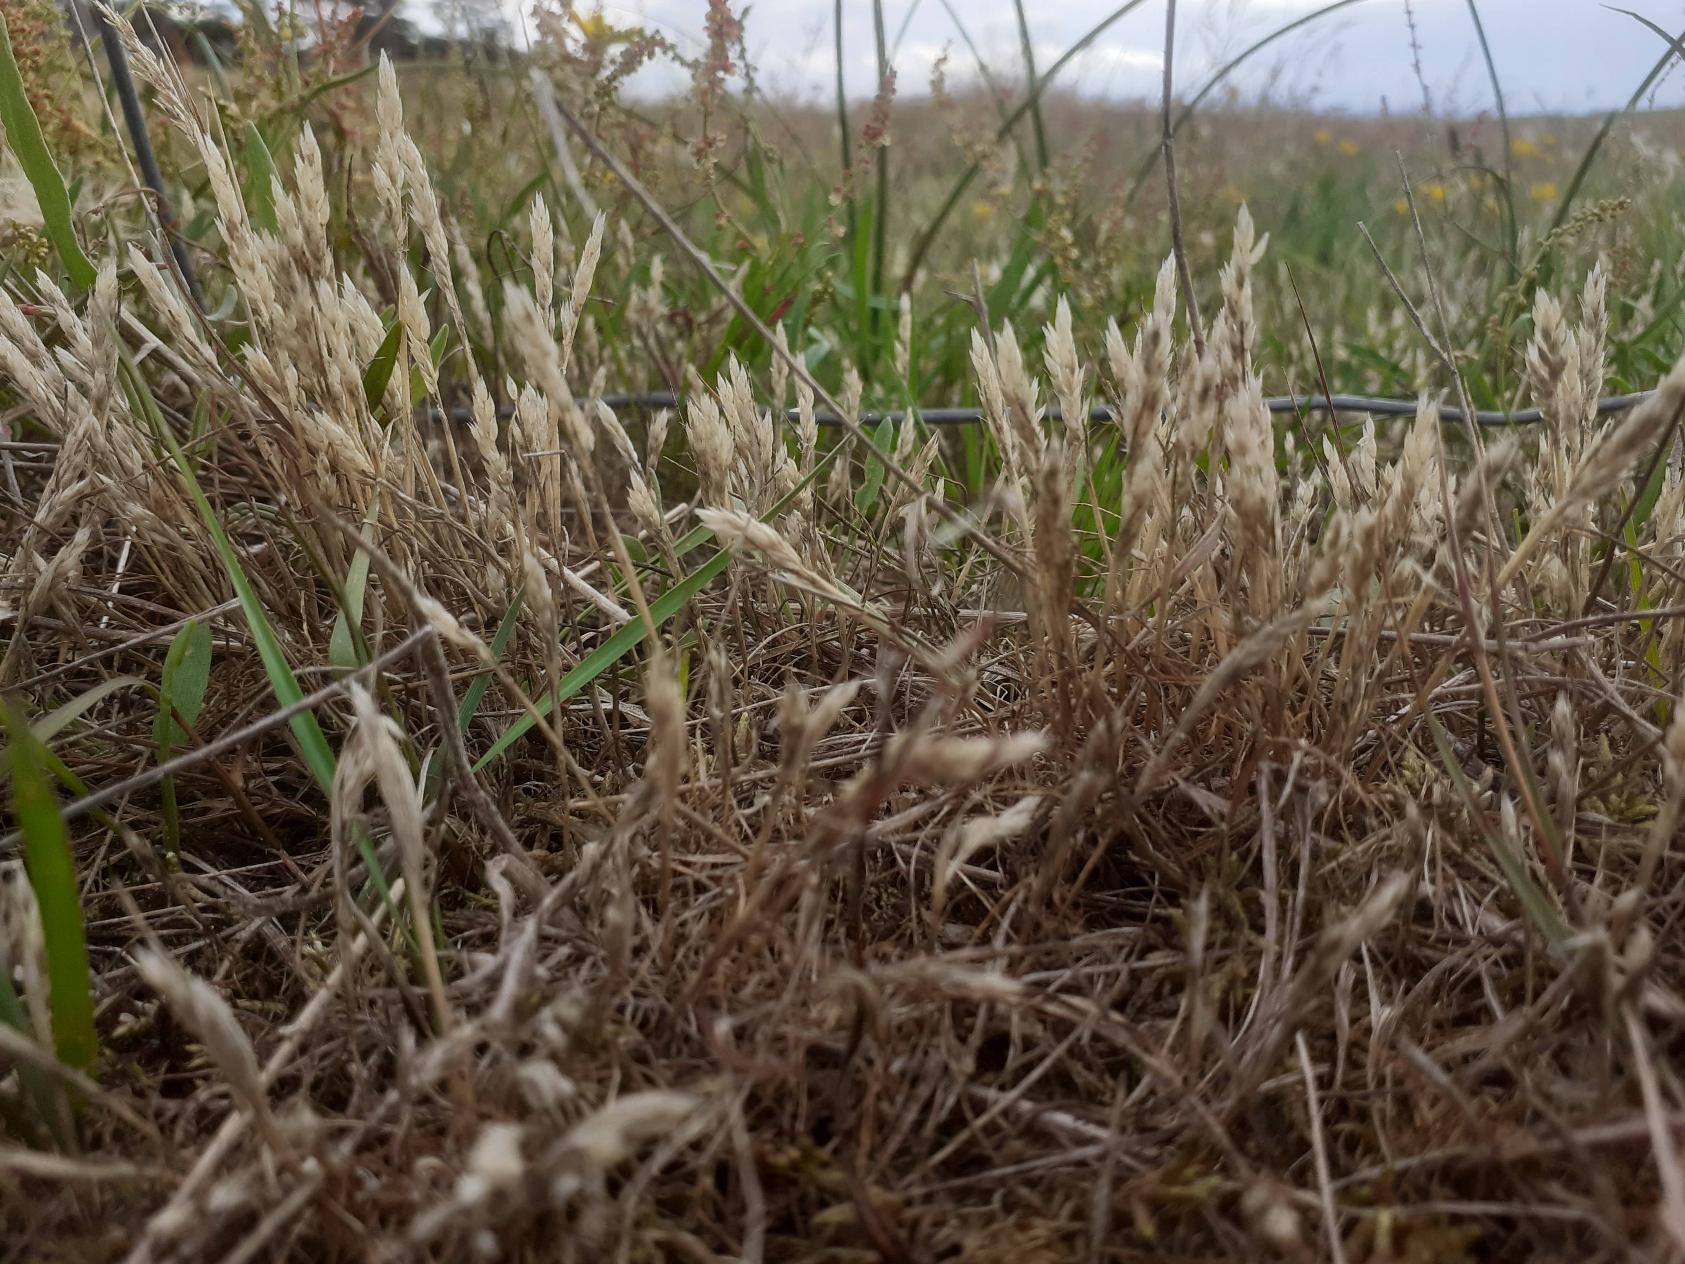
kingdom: Plantae
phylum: Tracheophyta
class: Liliopsida
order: Poales
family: Poaceae
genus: Aira
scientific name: Aira praecox
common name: Tidlig dværgbunke
